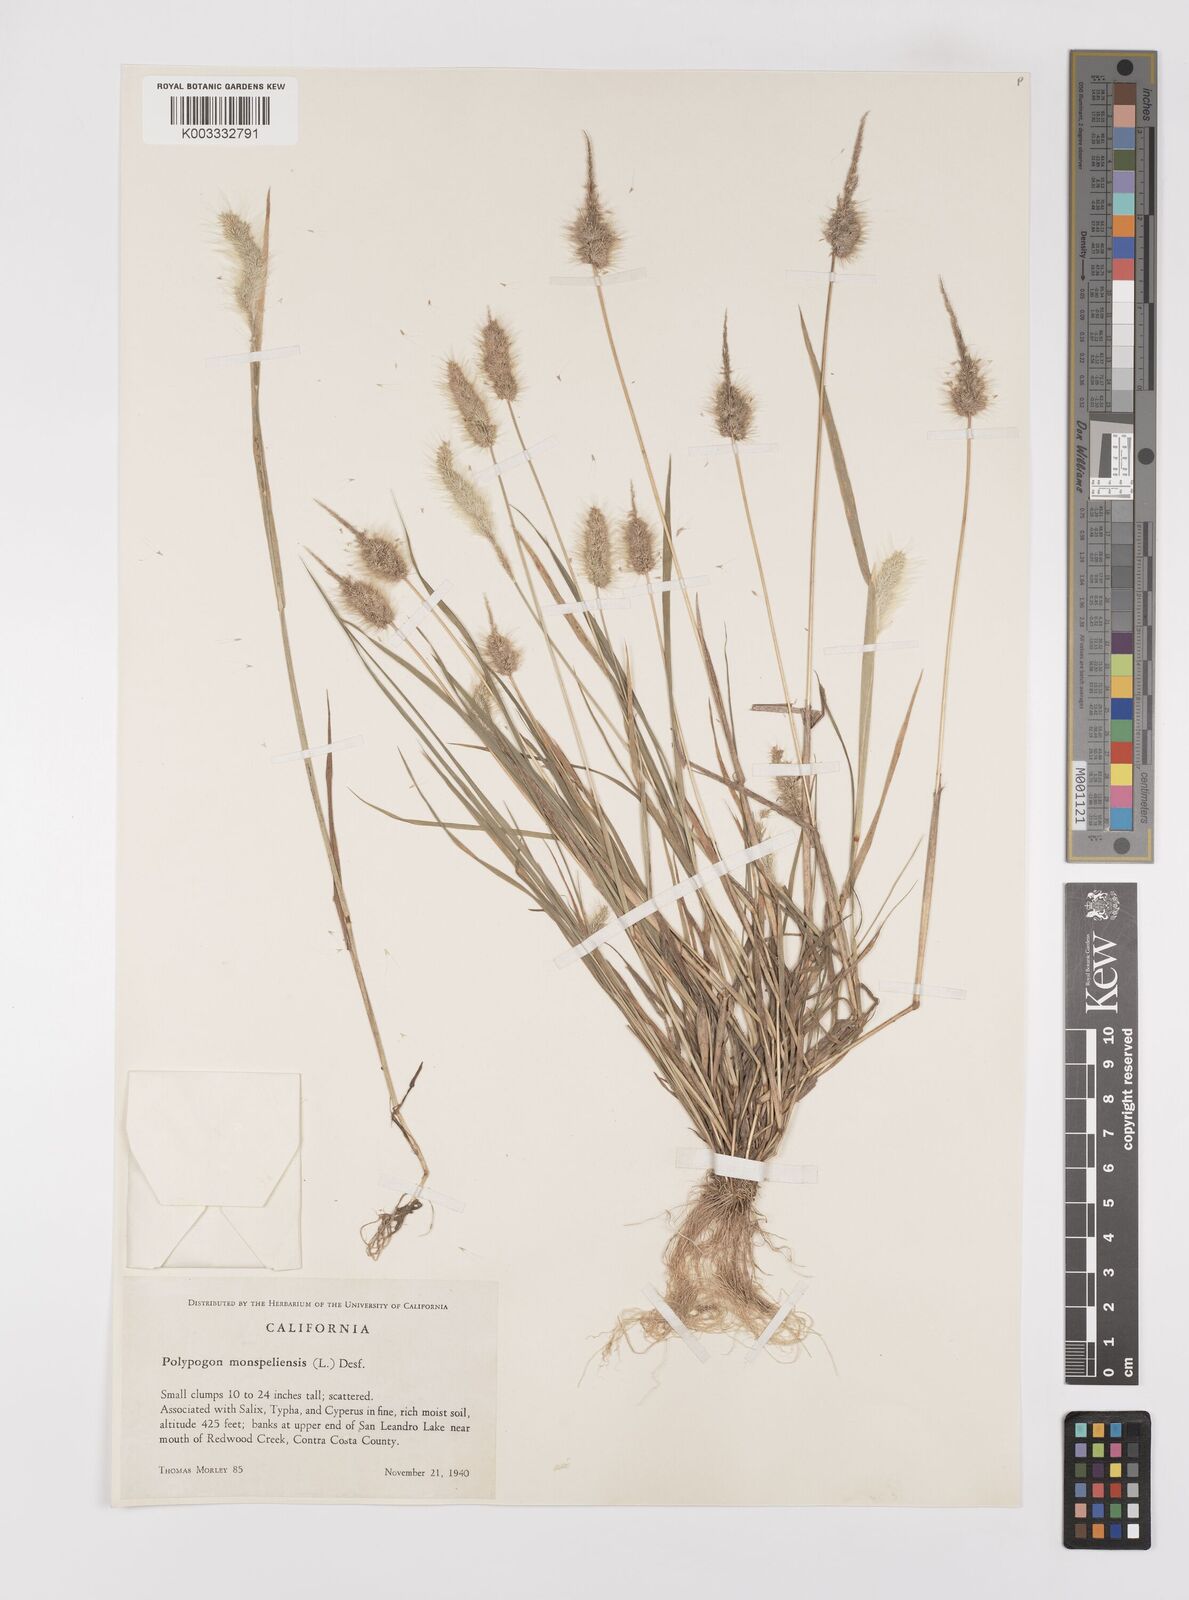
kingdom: Plantae
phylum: Tracheophyta
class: Liliopsida
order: Poales
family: Poaceae
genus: Polypogon
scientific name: Polypogon monspeliensis
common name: Annual rabbitsfoot grass
